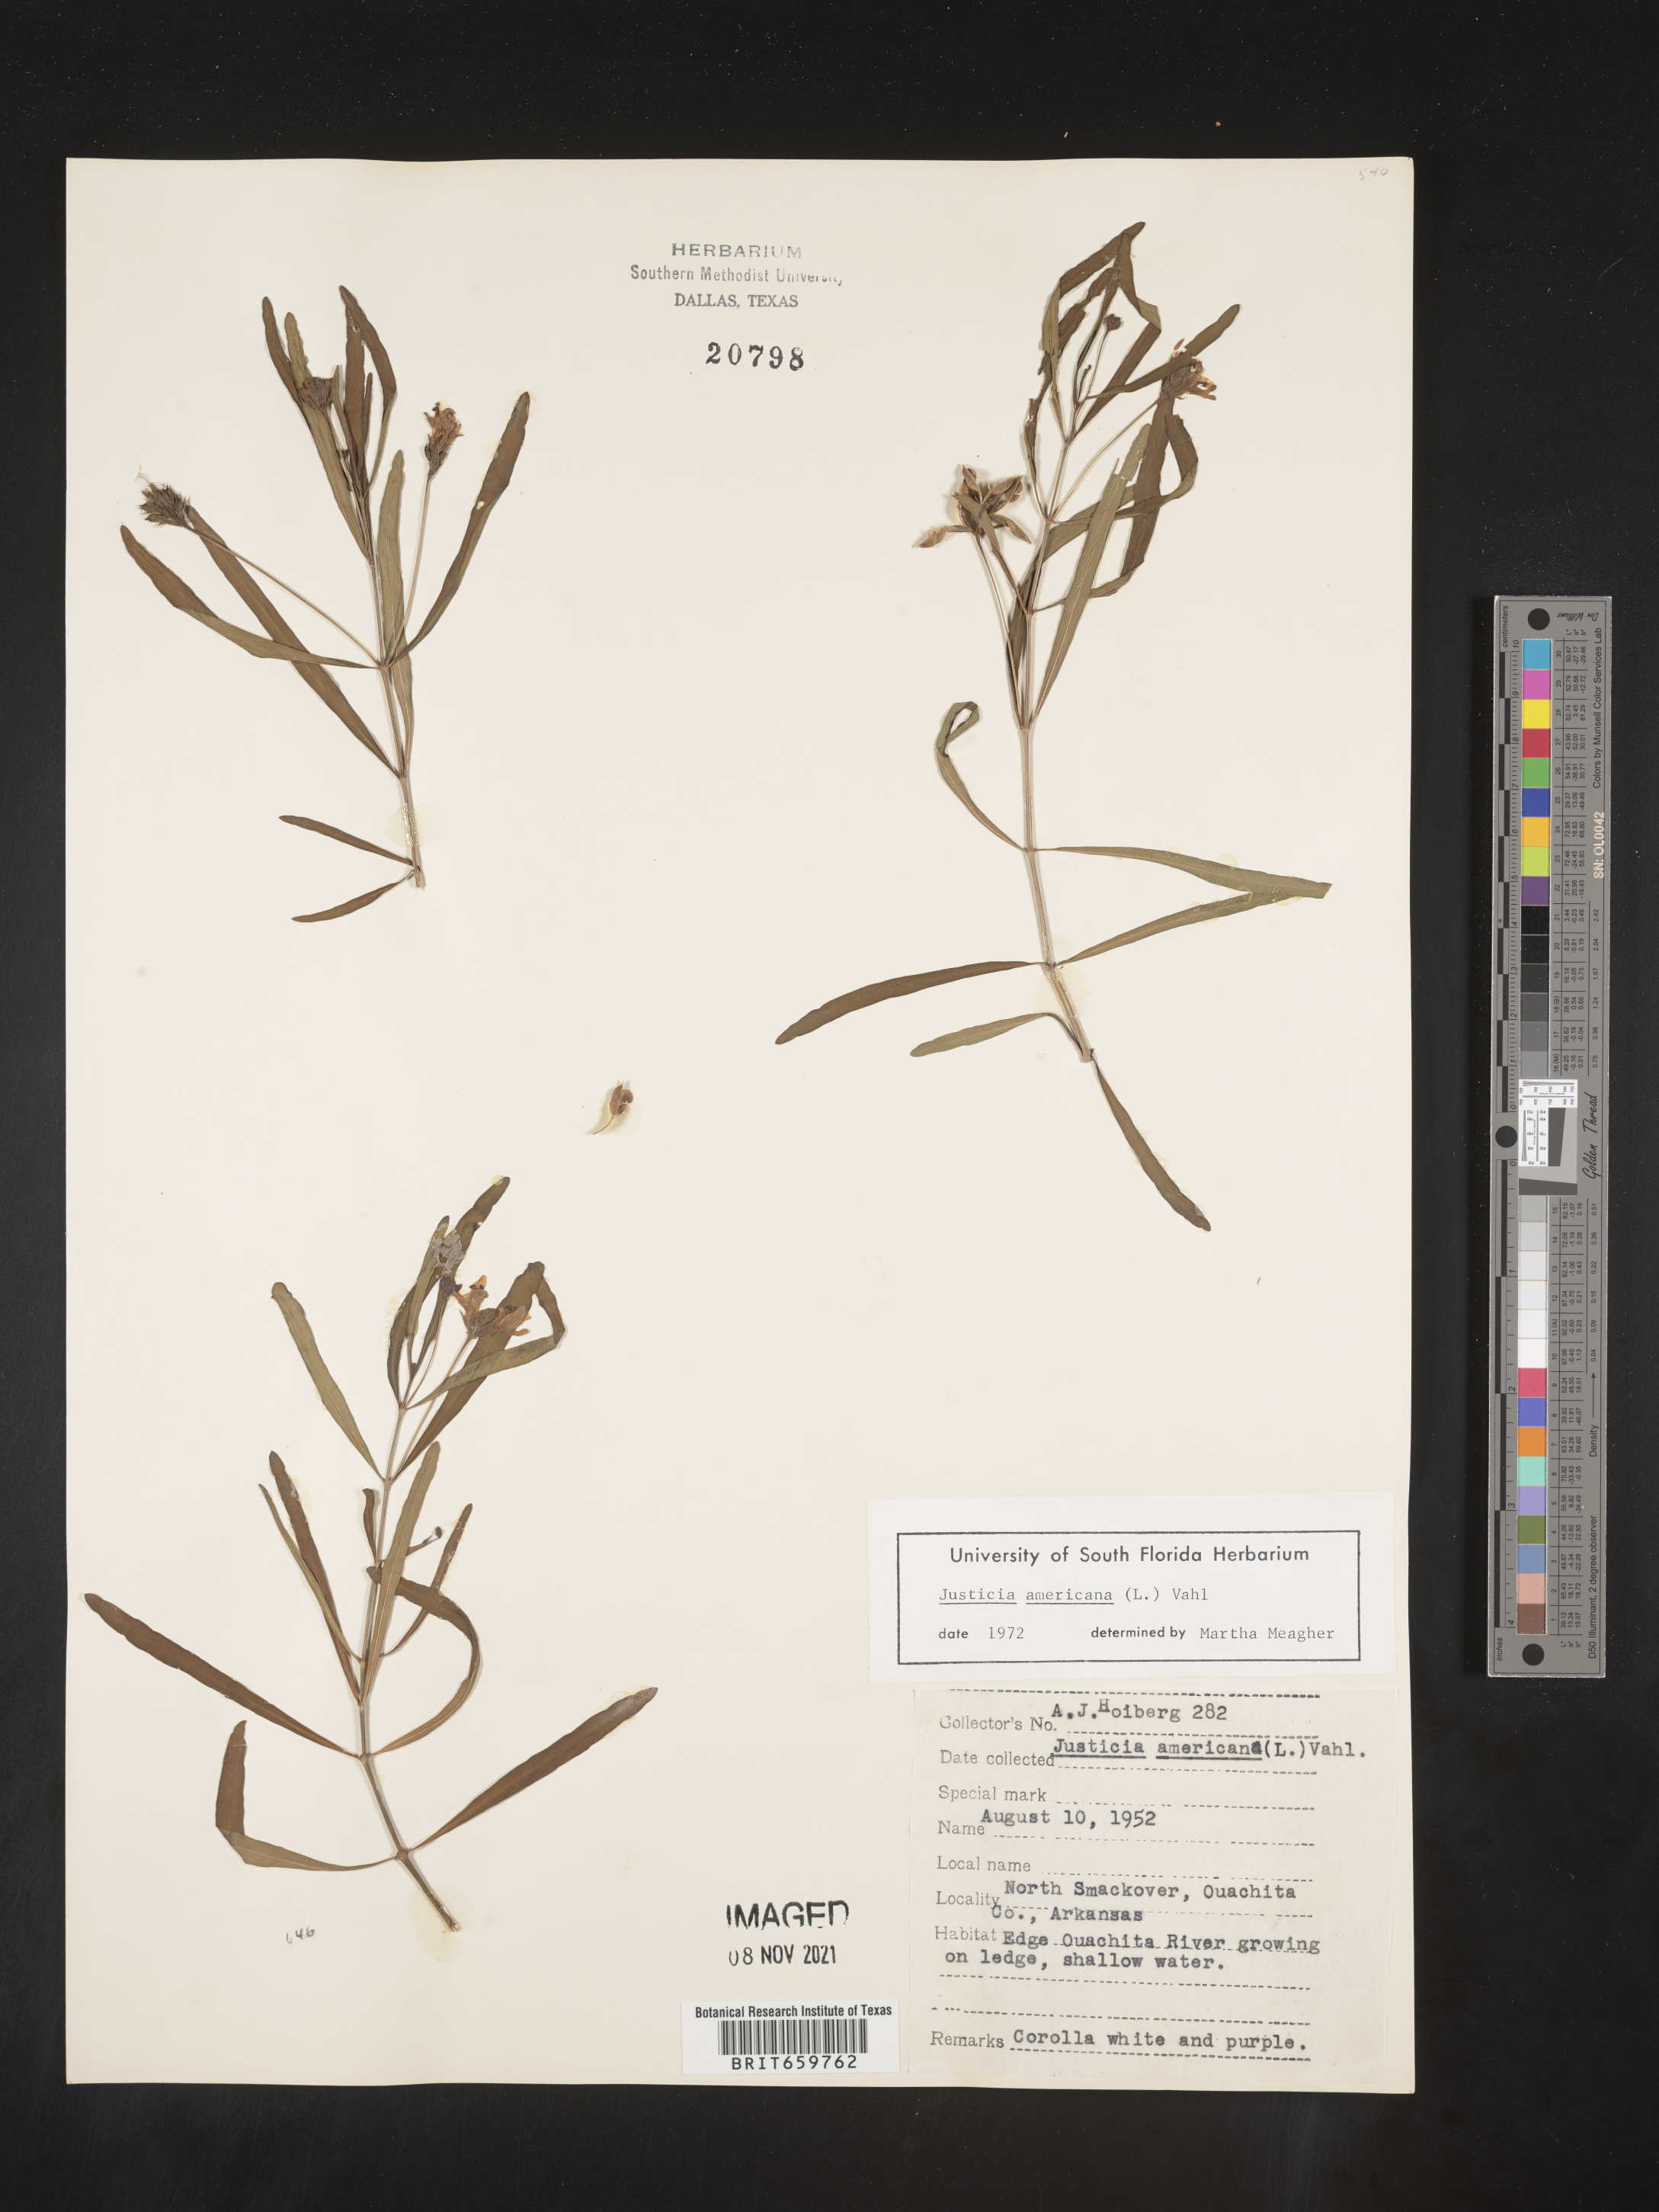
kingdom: Plantae
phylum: Tracheophyta
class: Magnoliopsida
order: Lamiales
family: Acanthaceae
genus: Dianthera
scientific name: Dianthera americana
